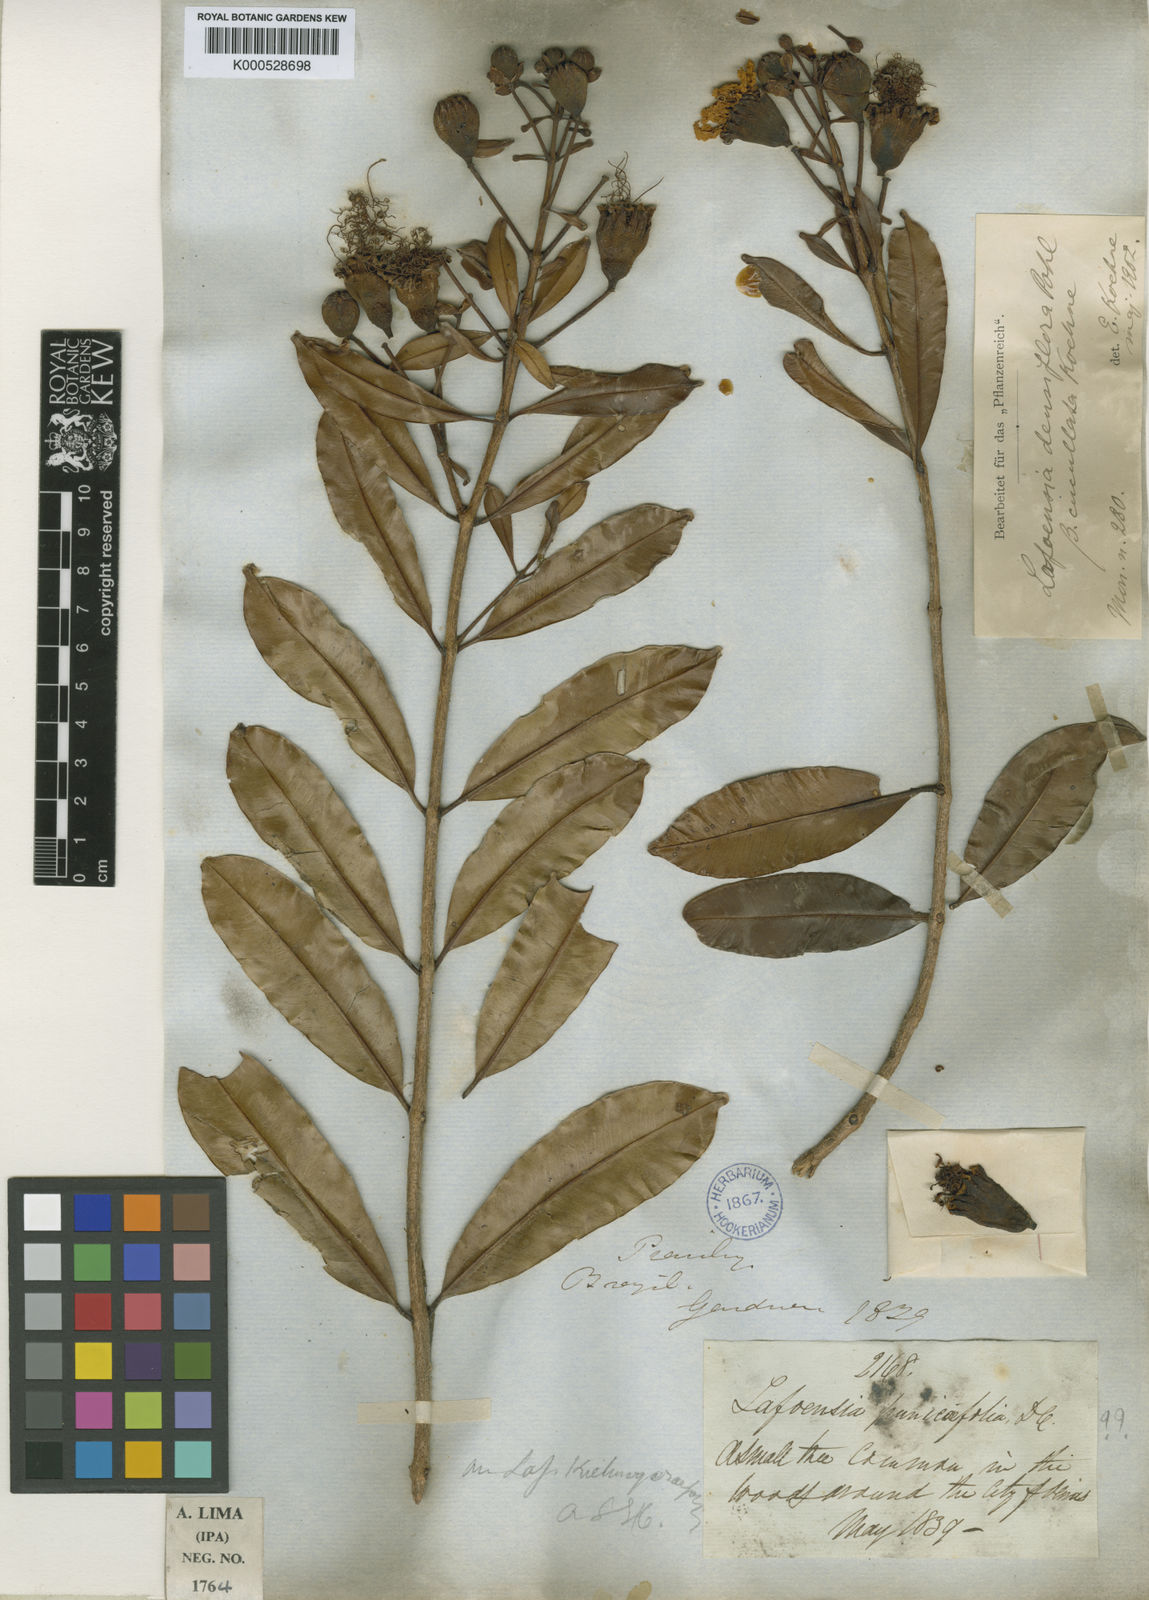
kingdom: Plantae
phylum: Tracheophyta
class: Magnoliopsida
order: Myrtales
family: Lythraceae
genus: Lafoensia
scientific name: Lafoensia vandelliana
